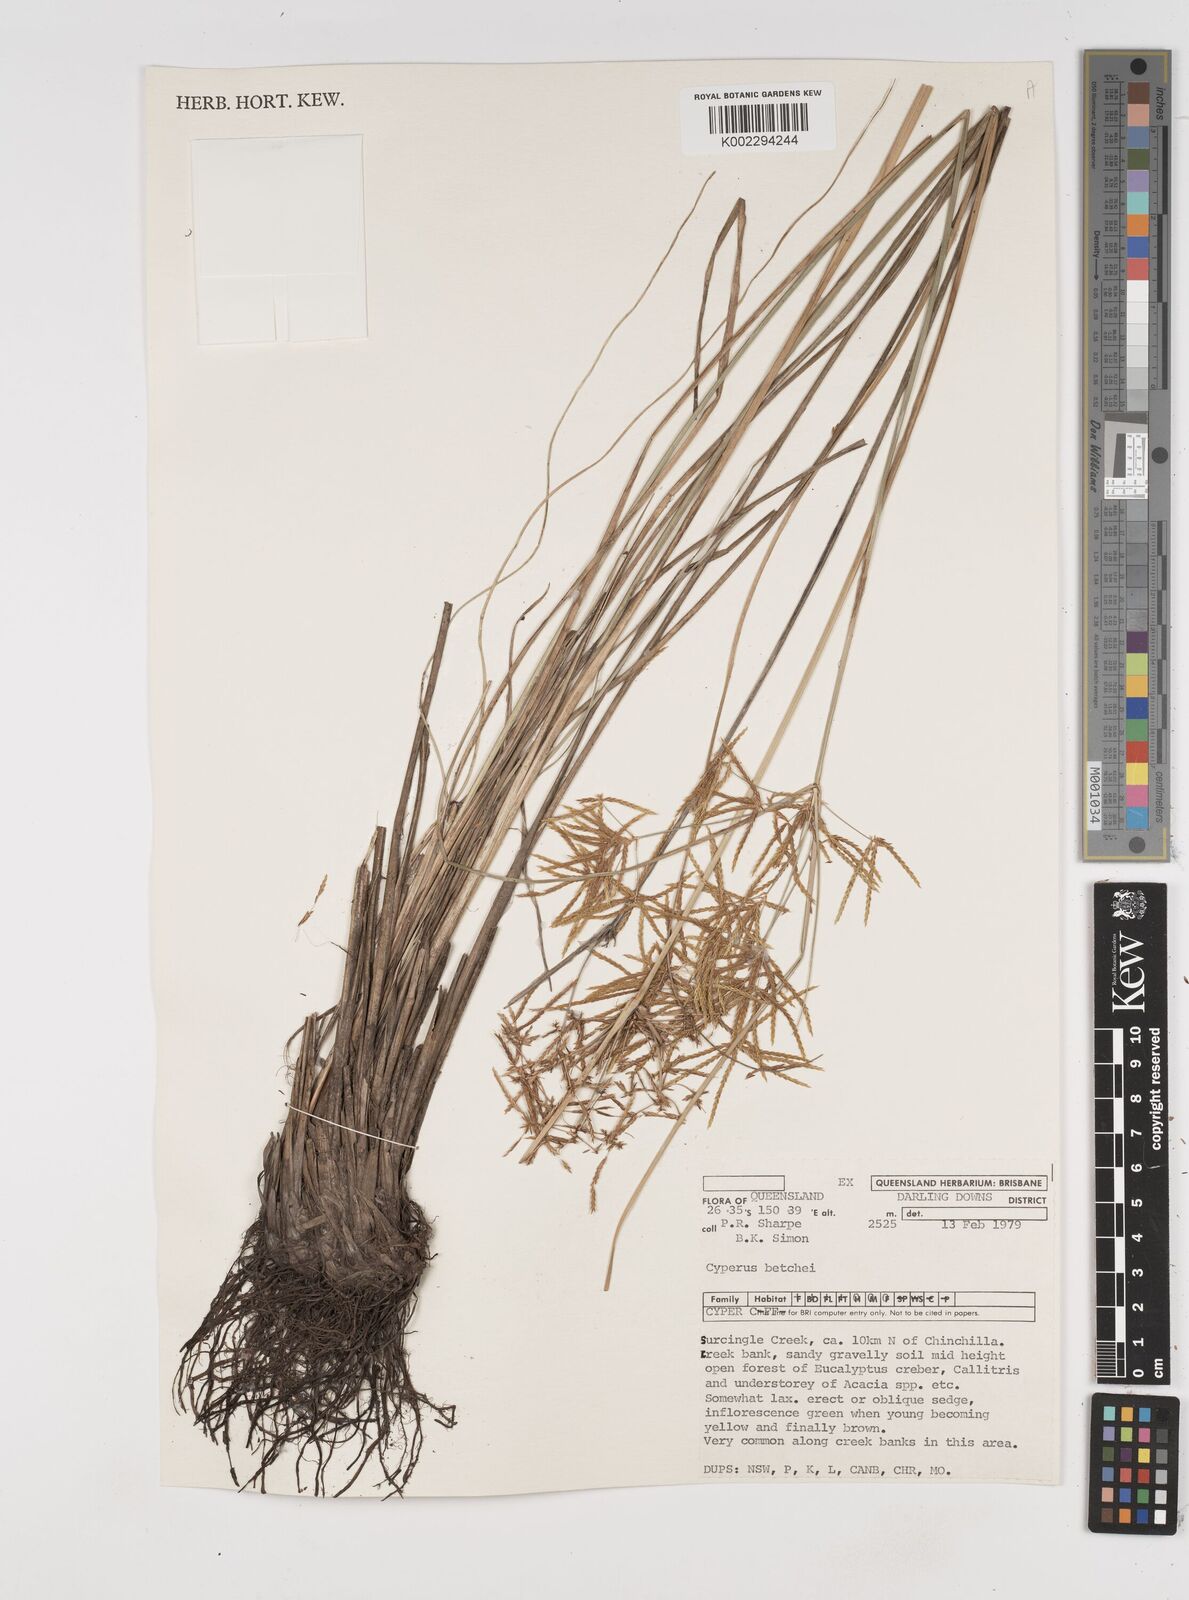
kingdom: Plantae
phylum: Tracheophyta
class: Liliopsida
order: Poales
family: Cyperaceae
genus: Cyperus
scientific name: Cyperus betchei
